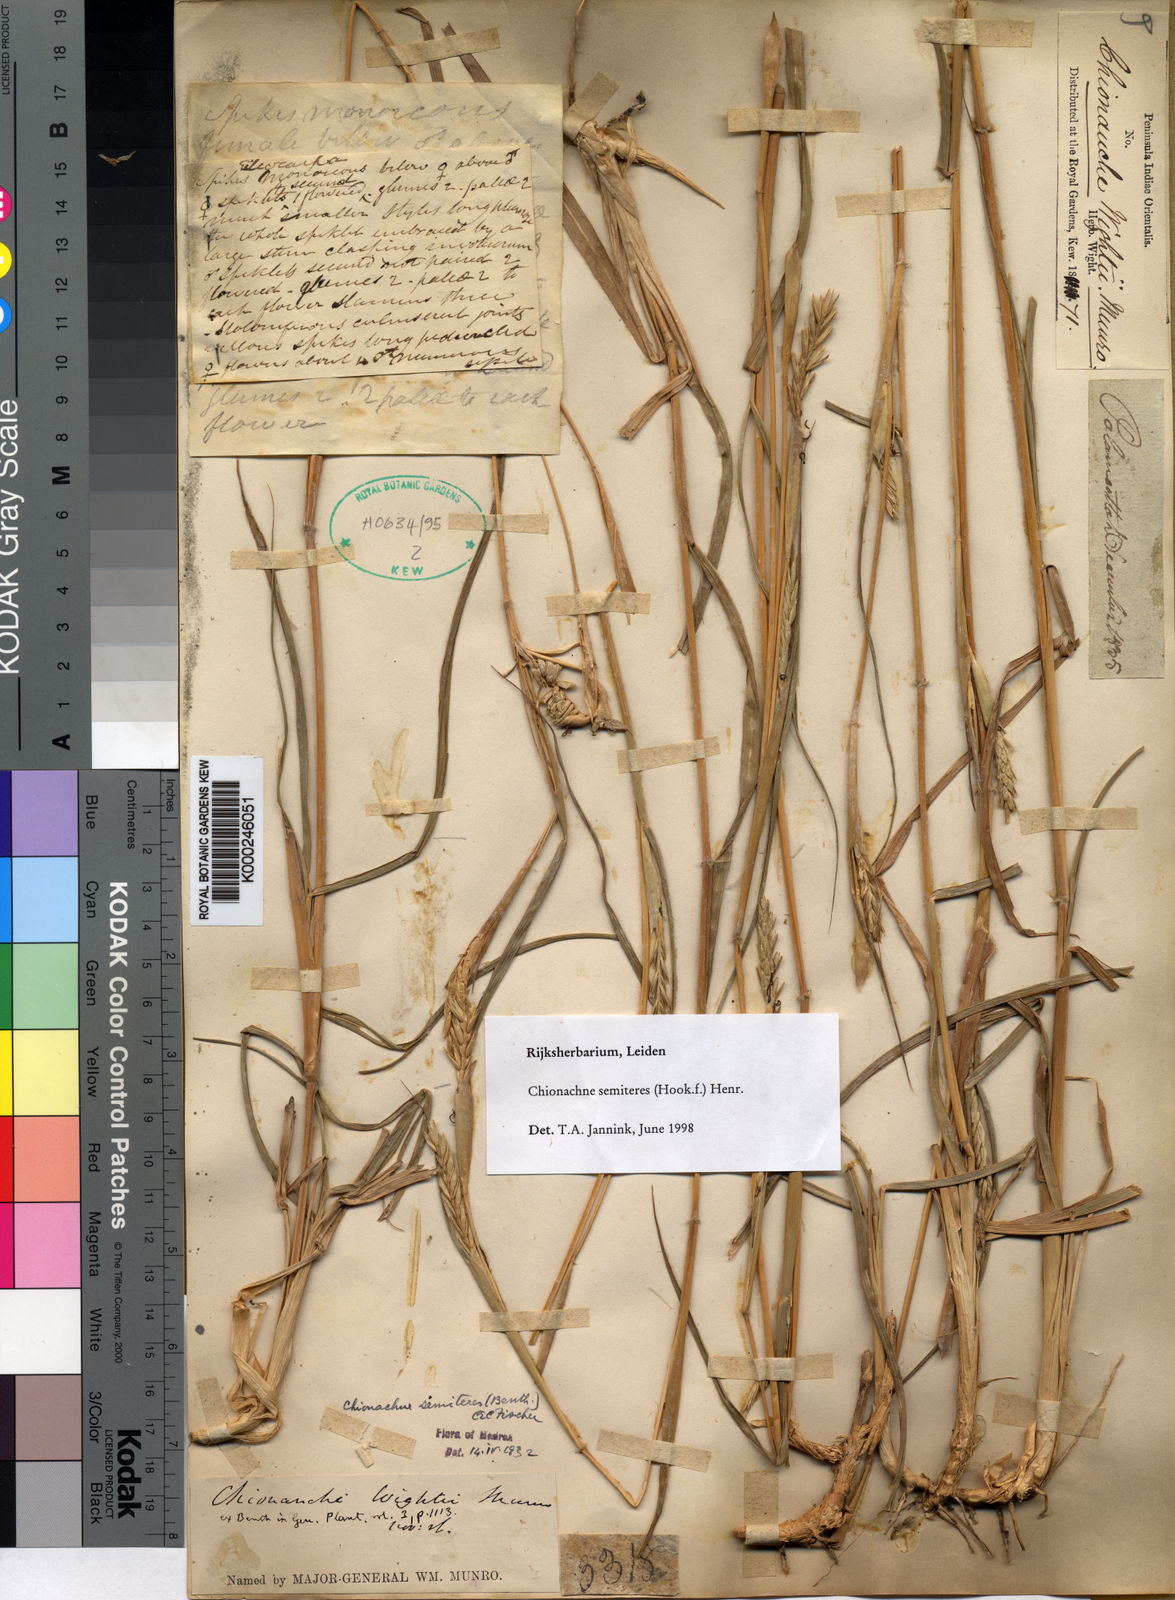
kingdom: Plantae
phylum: Tracheophyta
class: Liliopsida
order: Poales
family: Poaceae
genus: Polytoca
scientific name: Polytoca semiteres
